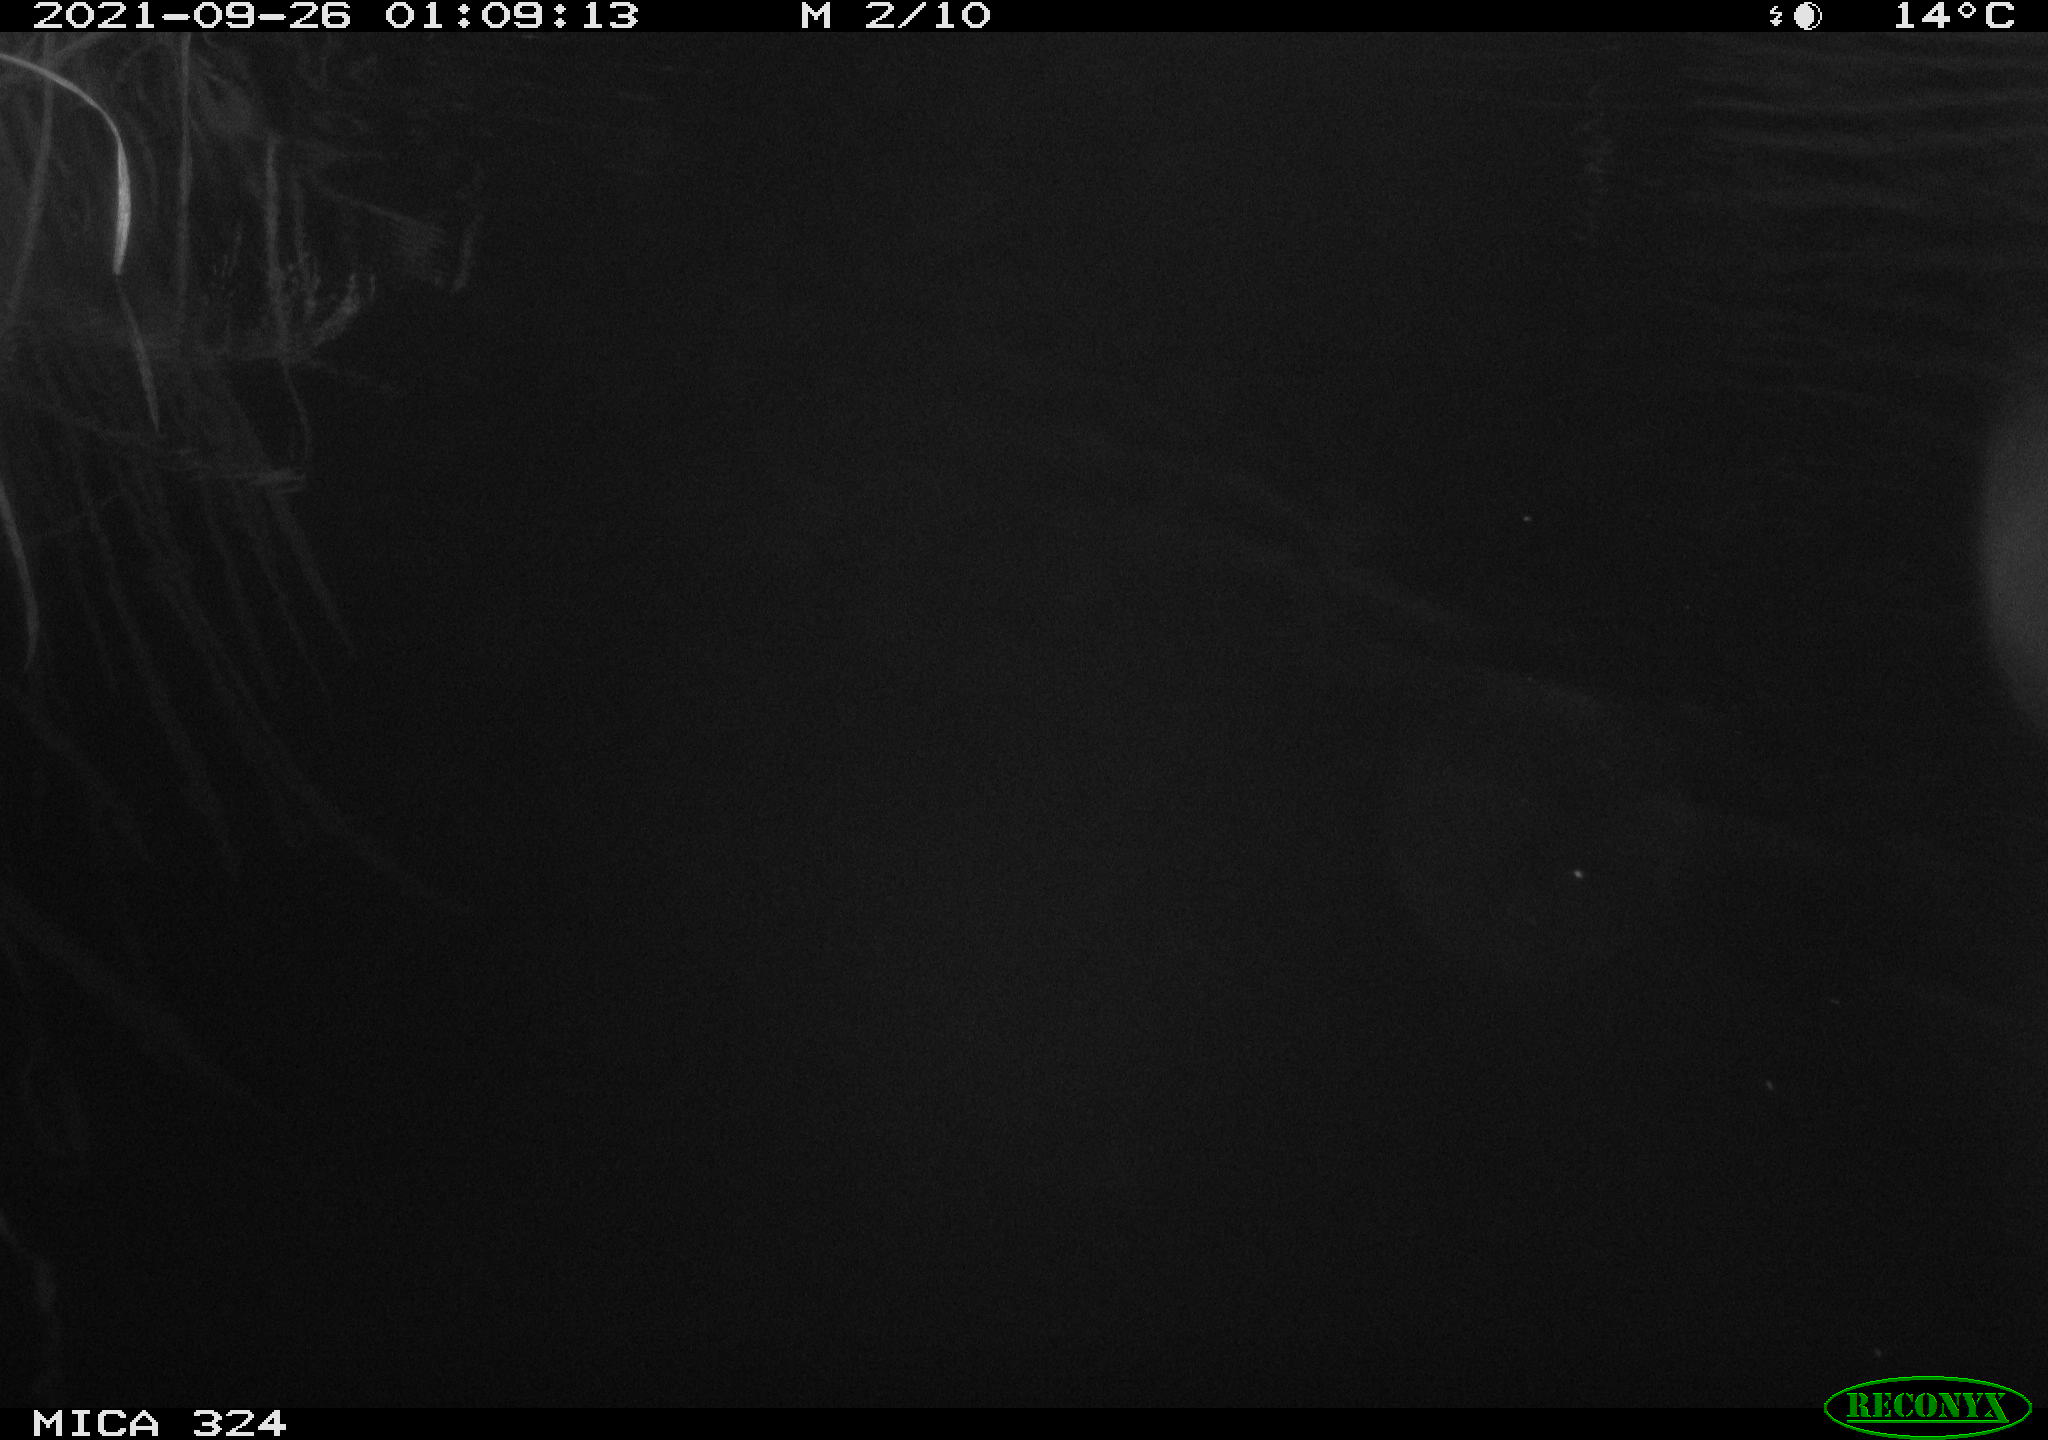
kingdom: Animalia
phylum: Chordata
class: Mammalia
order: Rodentia
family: Cricetidae
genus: Ondatra
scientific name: Ondatra zibethicus
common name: Muskrat
